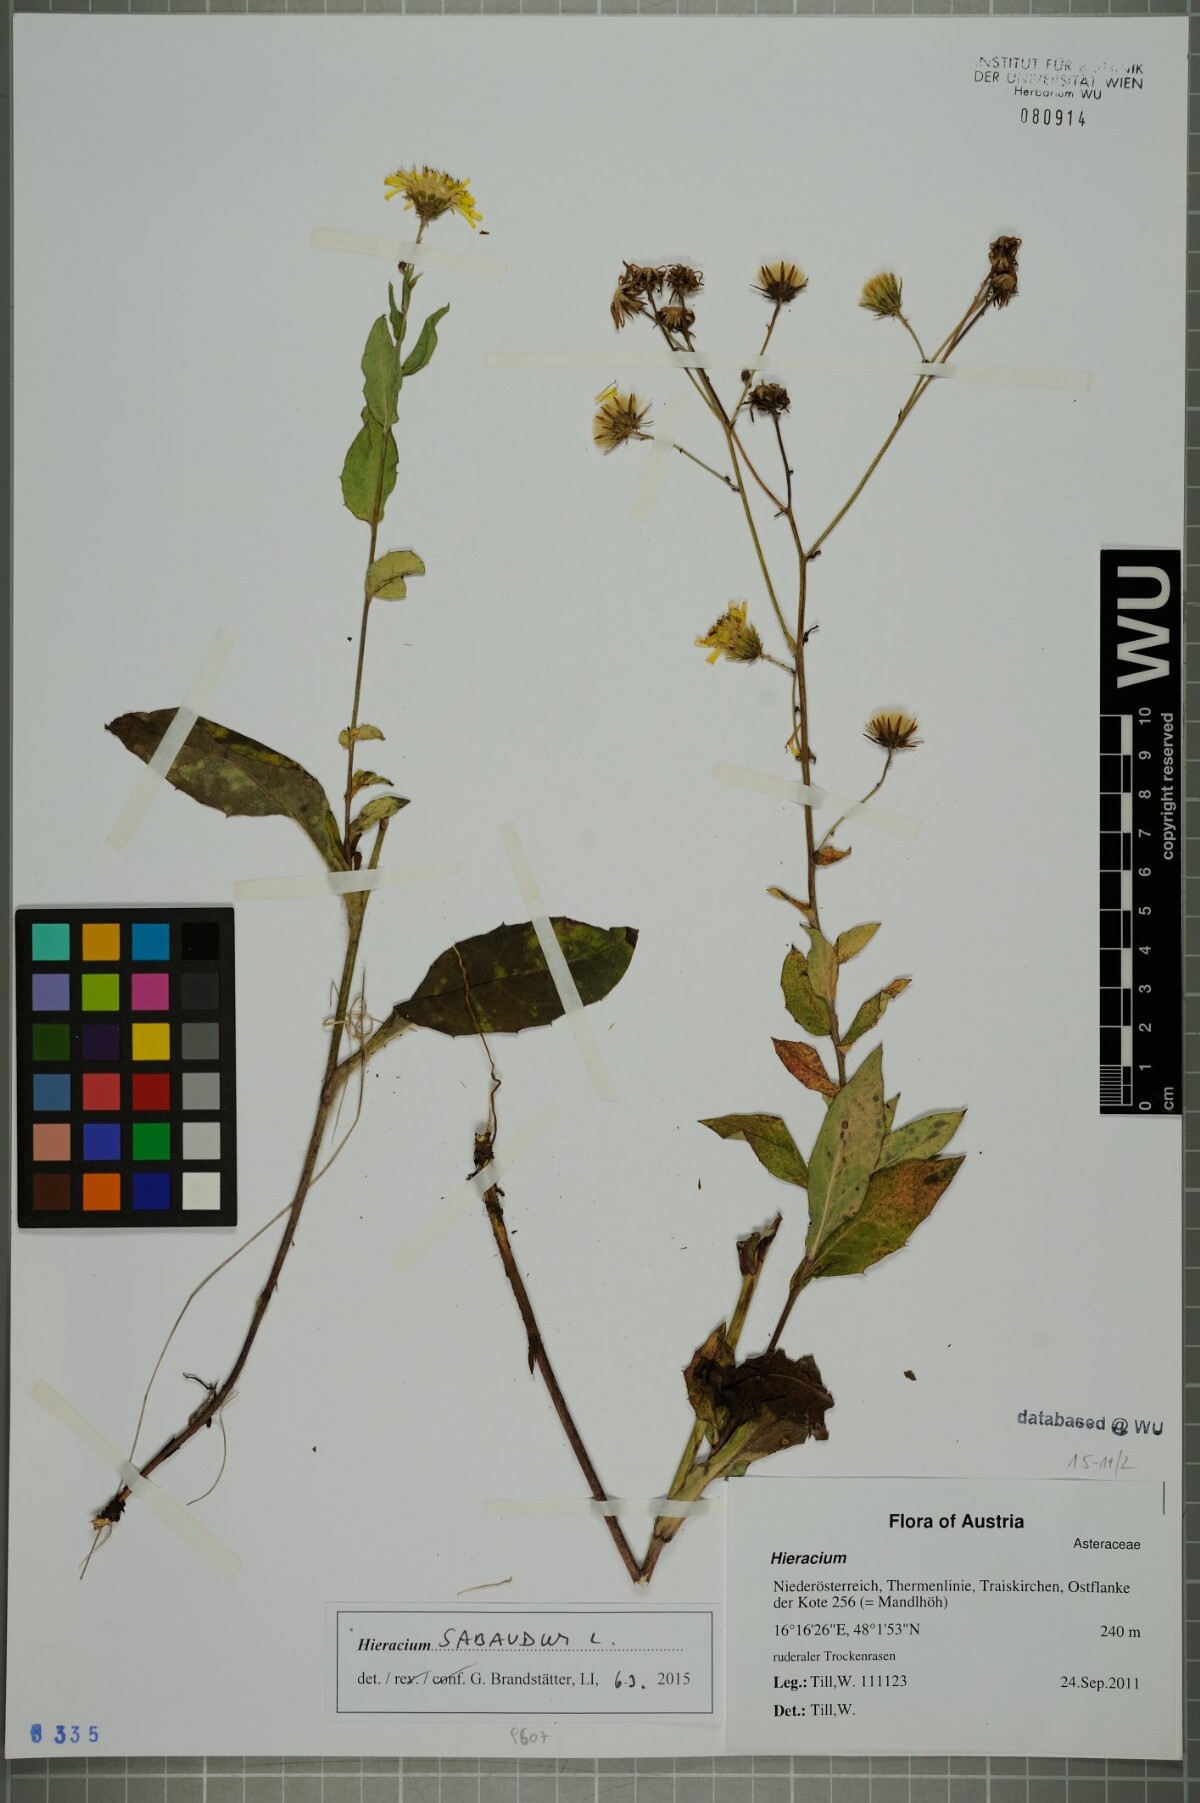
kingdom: Plantae
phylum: Tracheophyta
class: Magnoliopsida
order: Asterales
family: Asteraceae
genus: Hieracium
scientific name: Hieracium sabaudum
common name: New england hawkweed
